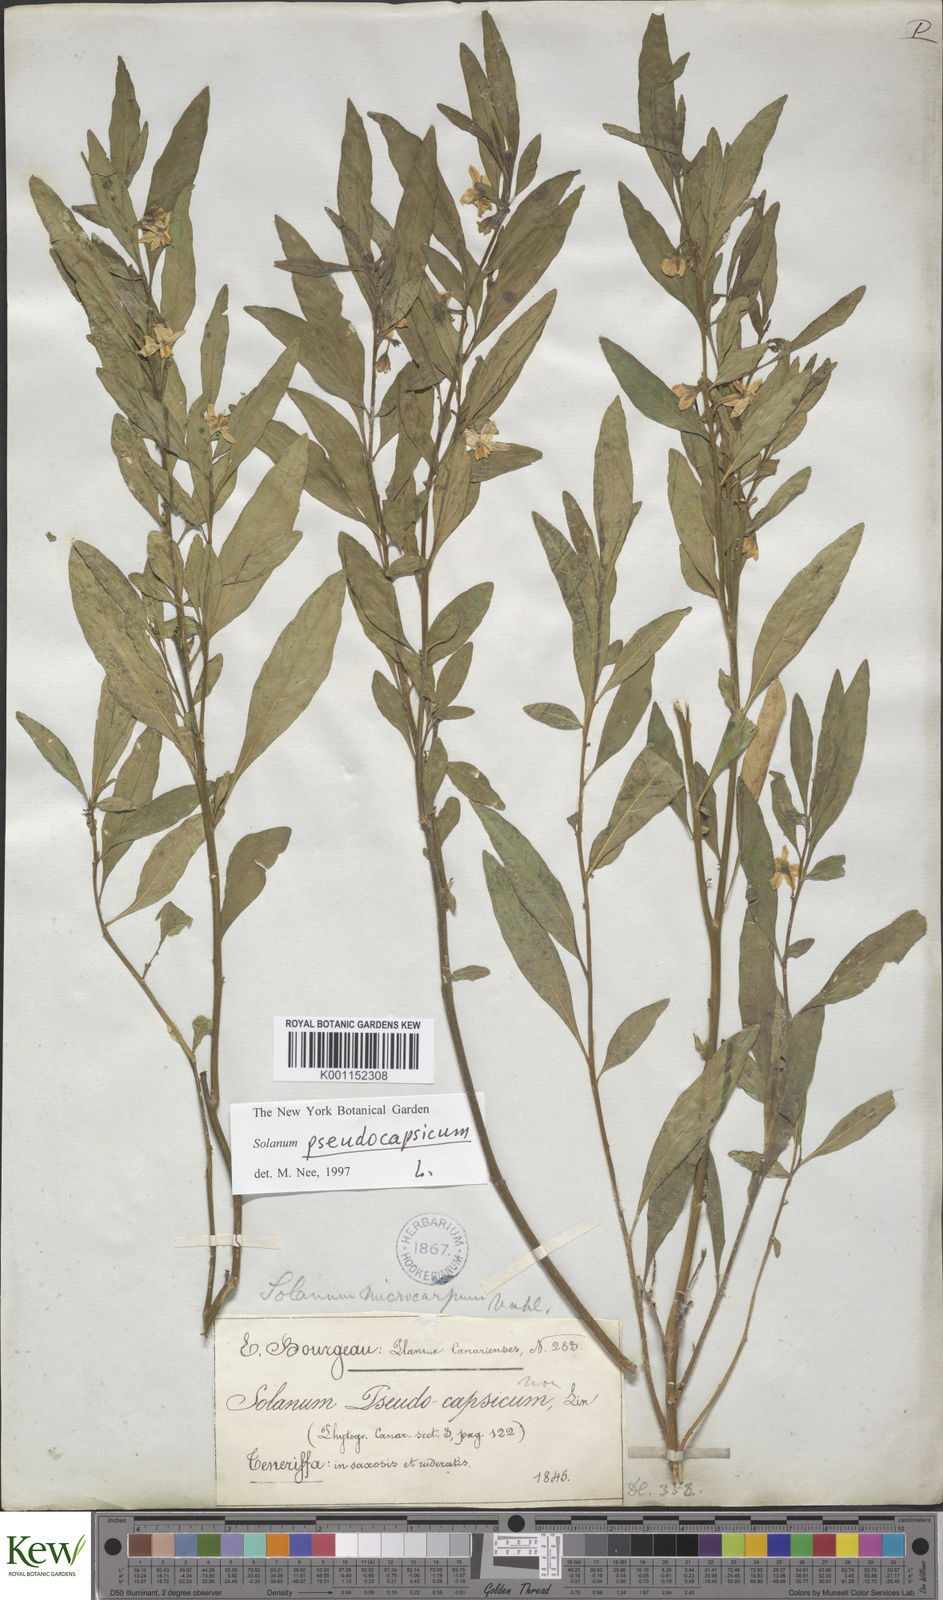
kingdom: Plantae
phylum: Tracheophyta
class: Magnoliopsida
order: Solanales
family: Solanaceae
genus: Solanum
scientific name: Solanum pseudocapsicum
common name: Jerusalem cherry
